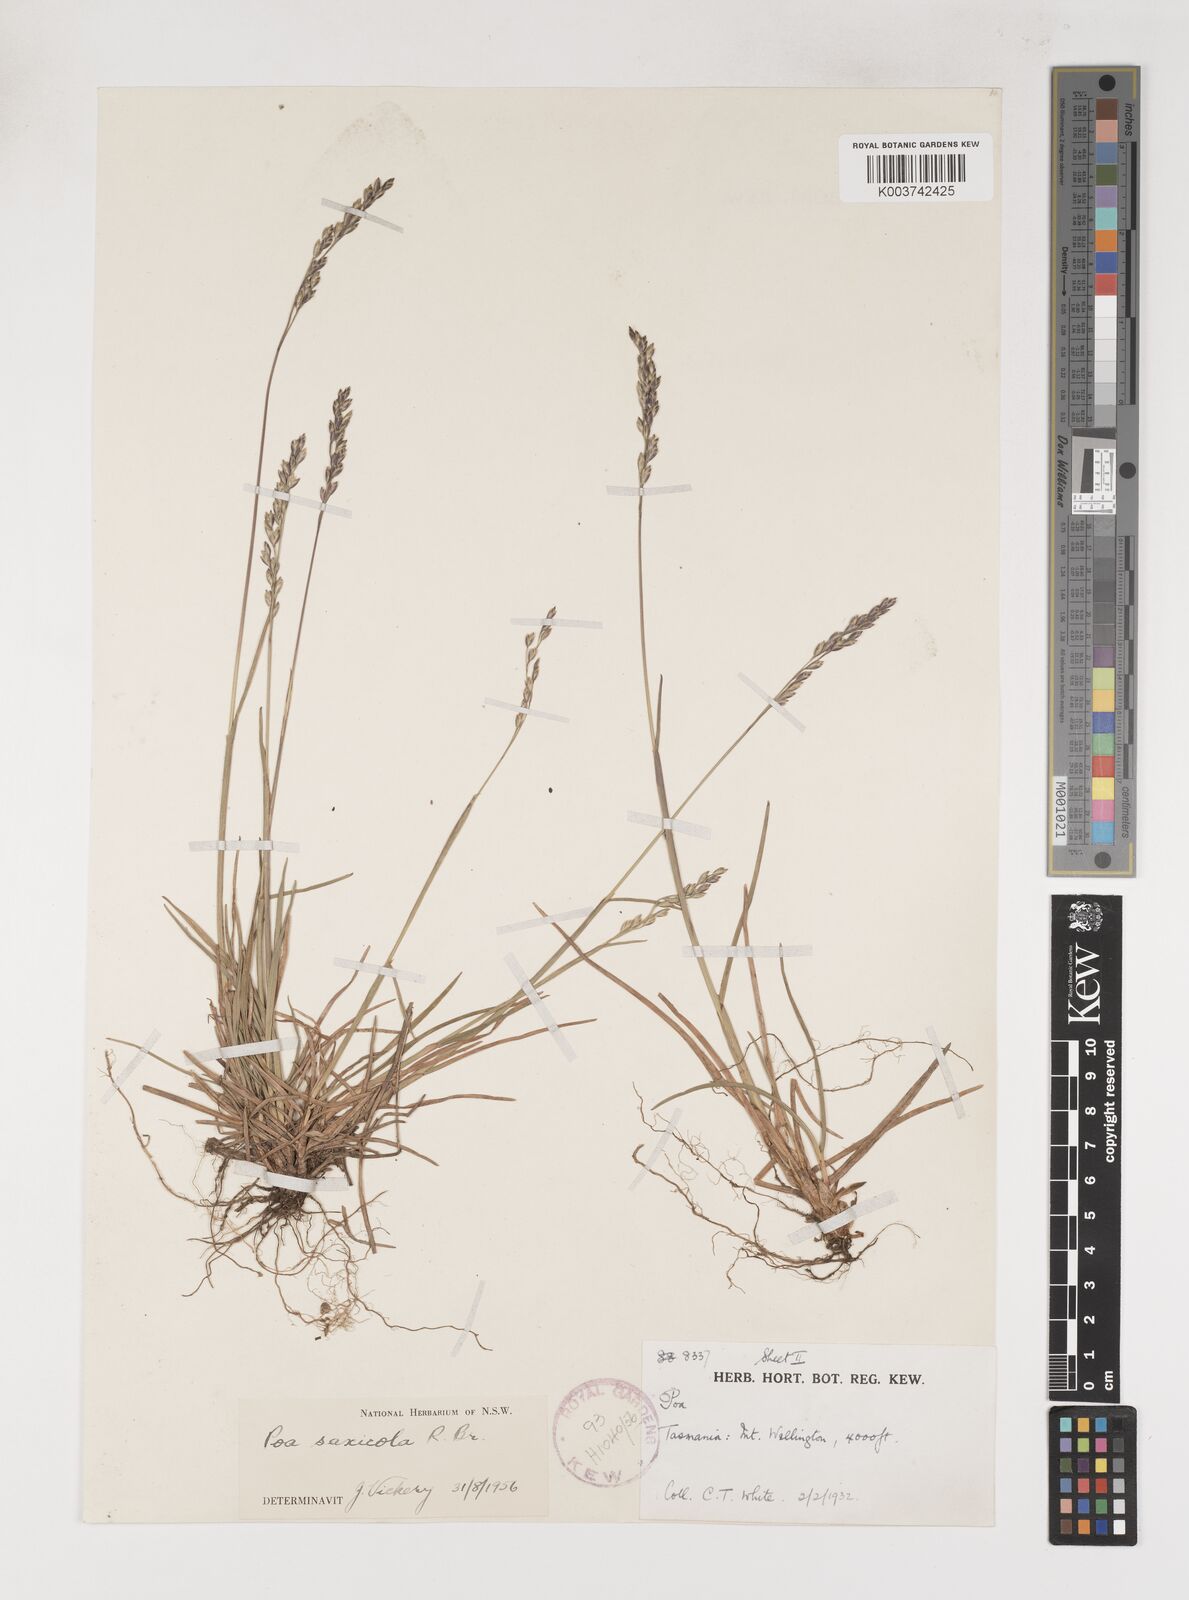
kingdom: Plantae
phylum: Tracheophyta
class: Liliopsida
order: Poales
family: Poaceae
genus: Saxipoa
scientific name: Saxipoa saxicola
